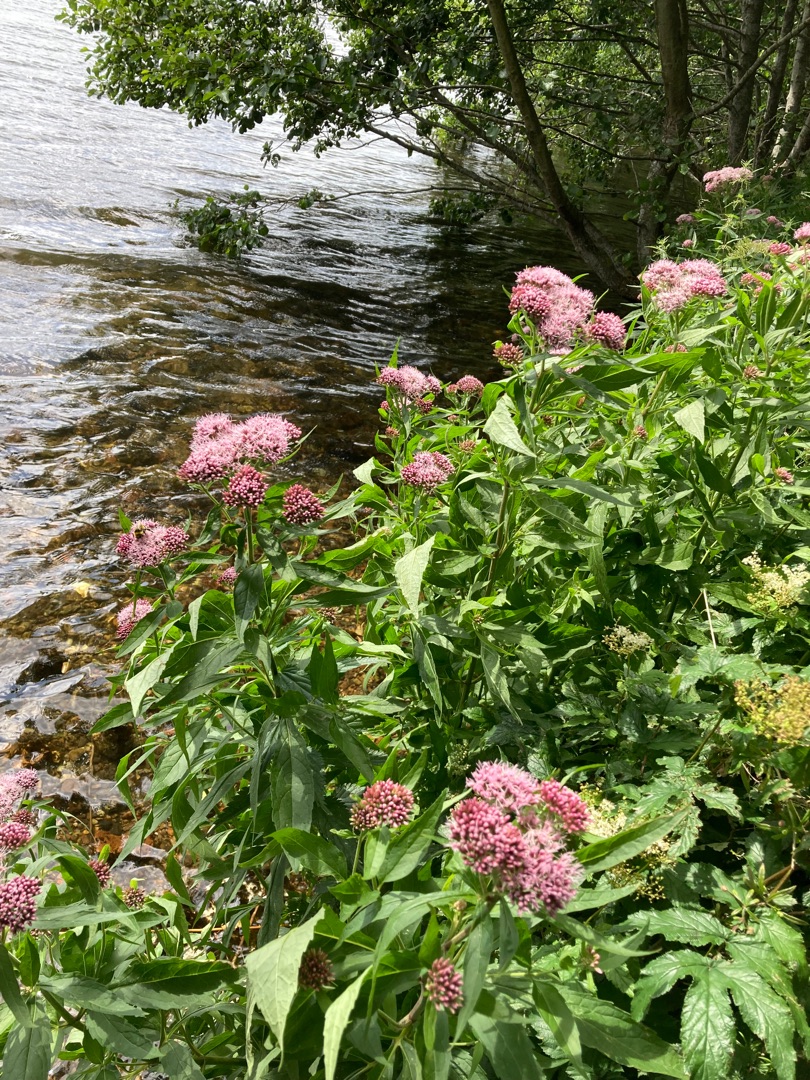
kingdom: Plantae
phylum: Tracheophyta
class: Magnoliopsida
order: Asterales
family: Asteraceae
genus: Eupatorium
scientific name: Eupatorium cannabinum
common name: Hjortetrøst
